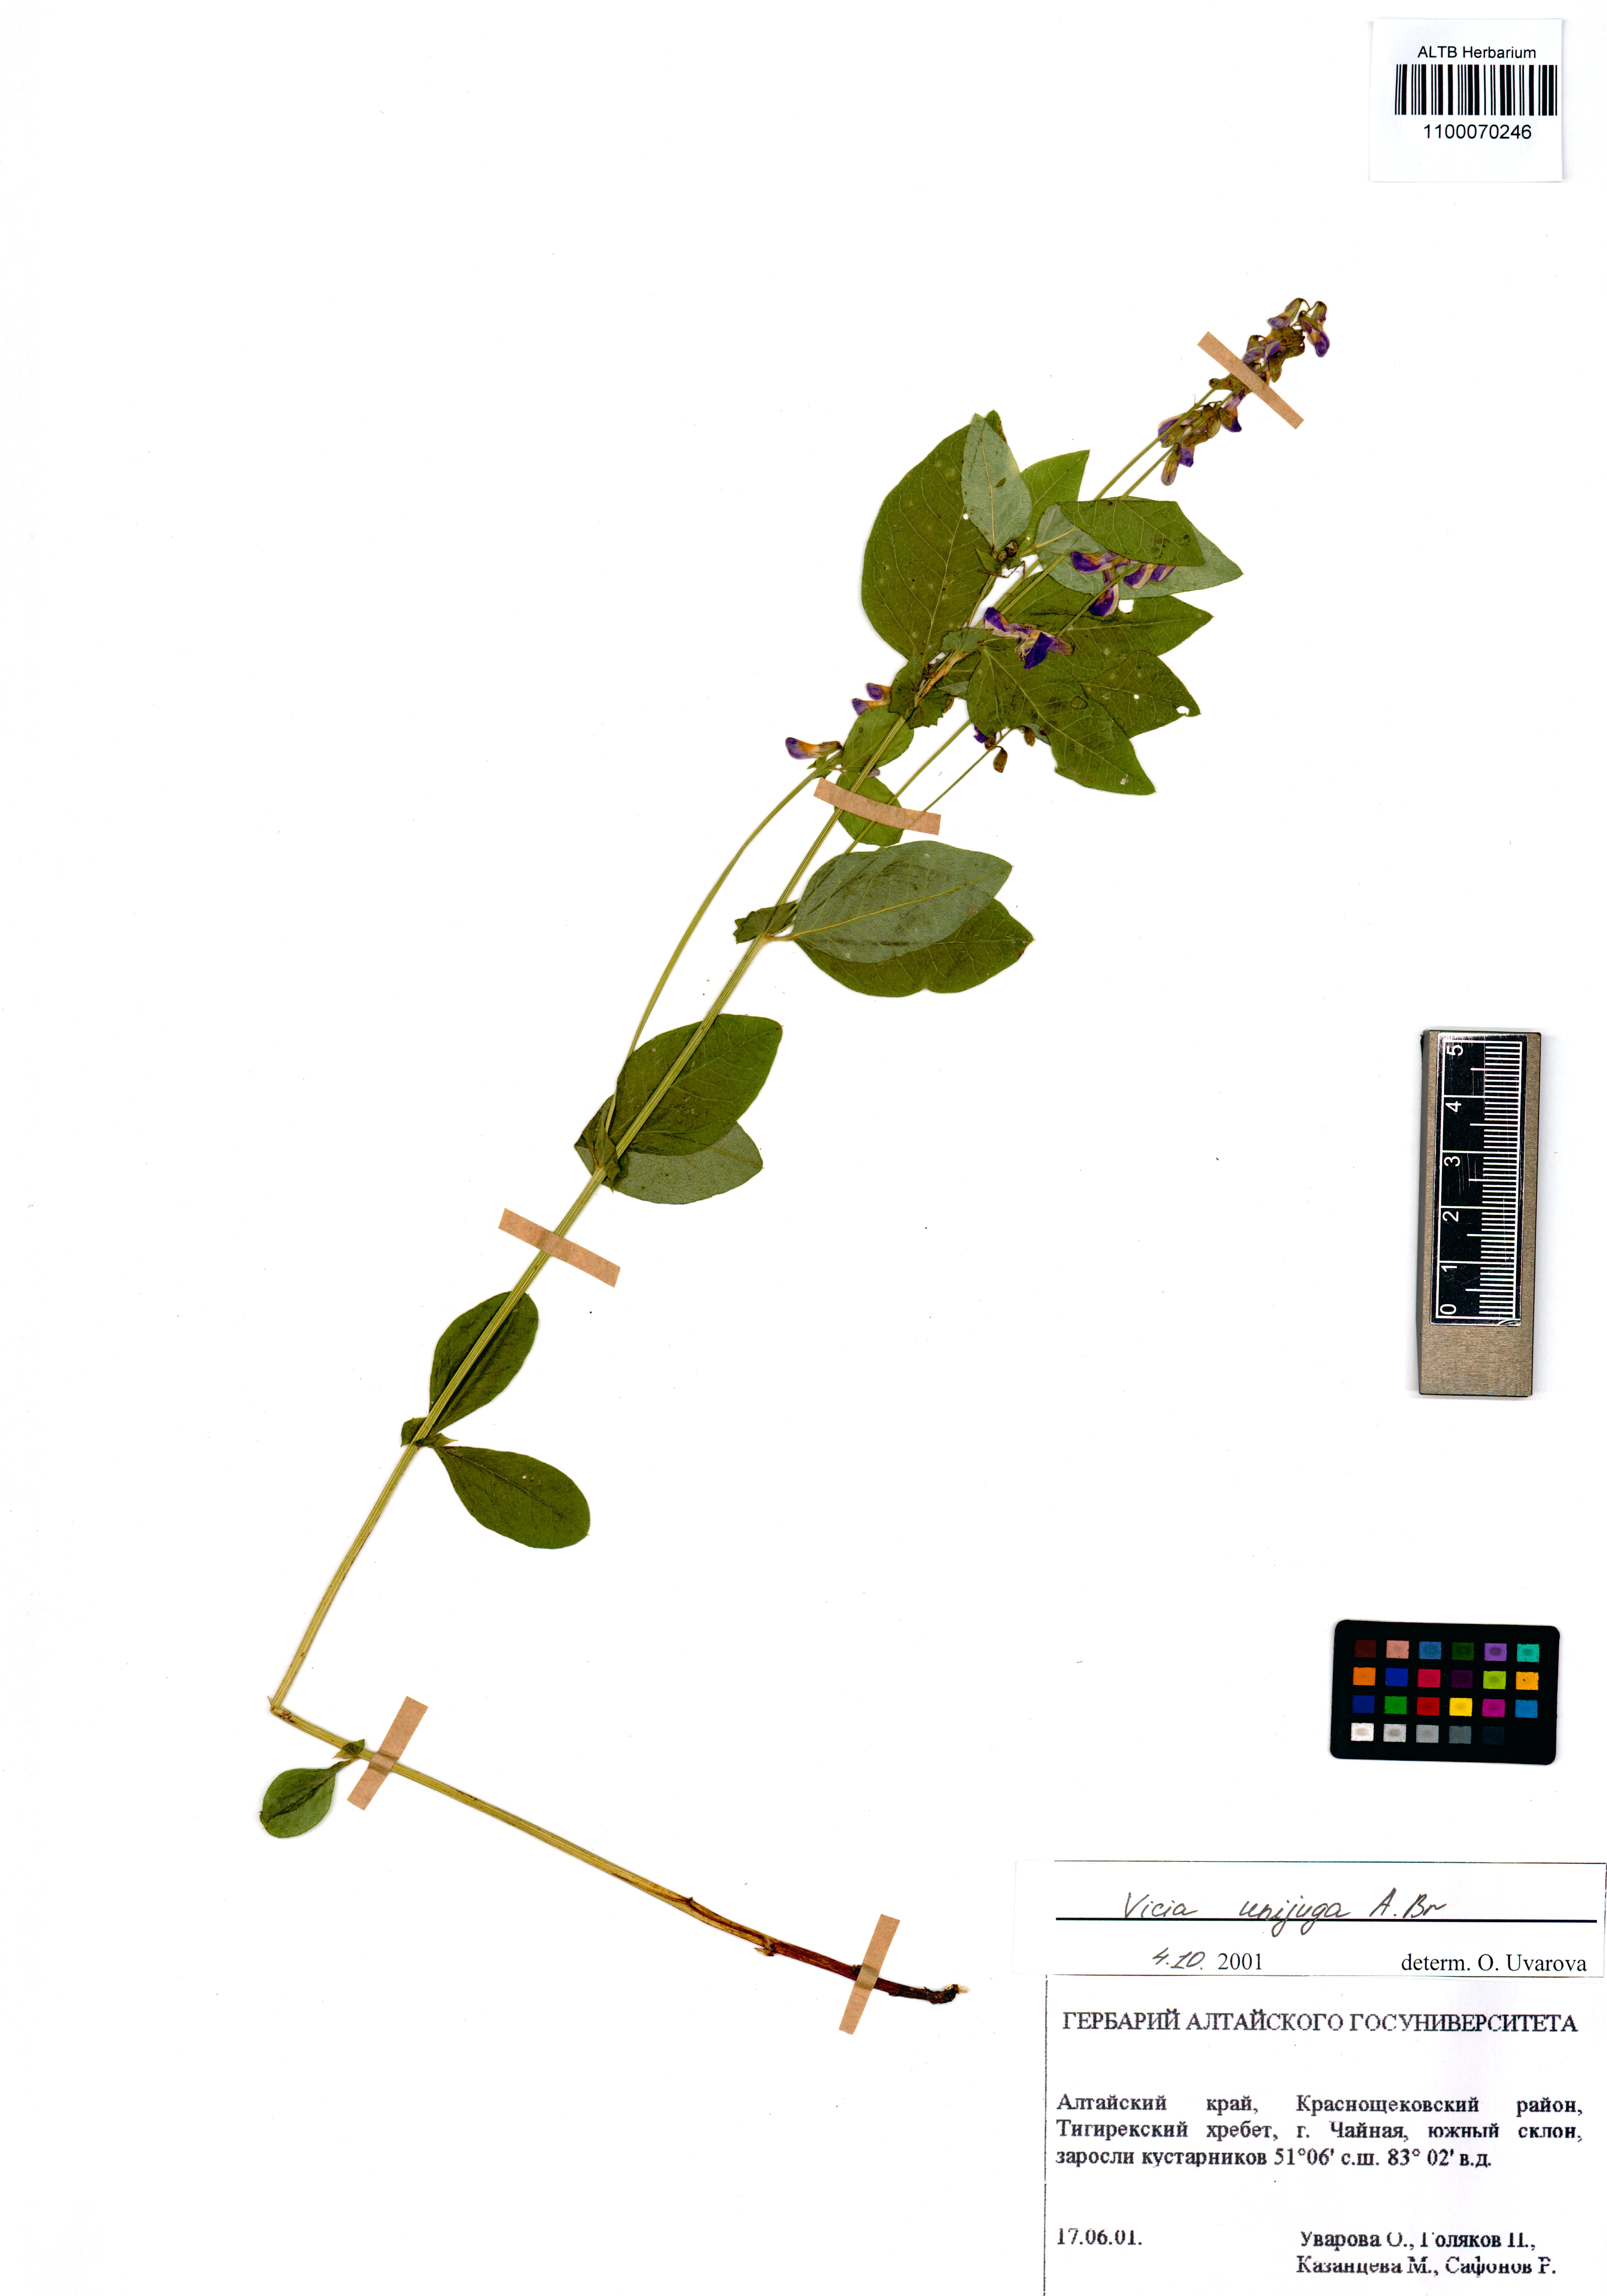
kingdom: Plantae
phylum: Tracheophyta
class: Magnoliopsida
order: Fabales
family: Fabaceae
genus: Vicia
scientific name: Vicia unijuga
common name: Two-leaf vetch
